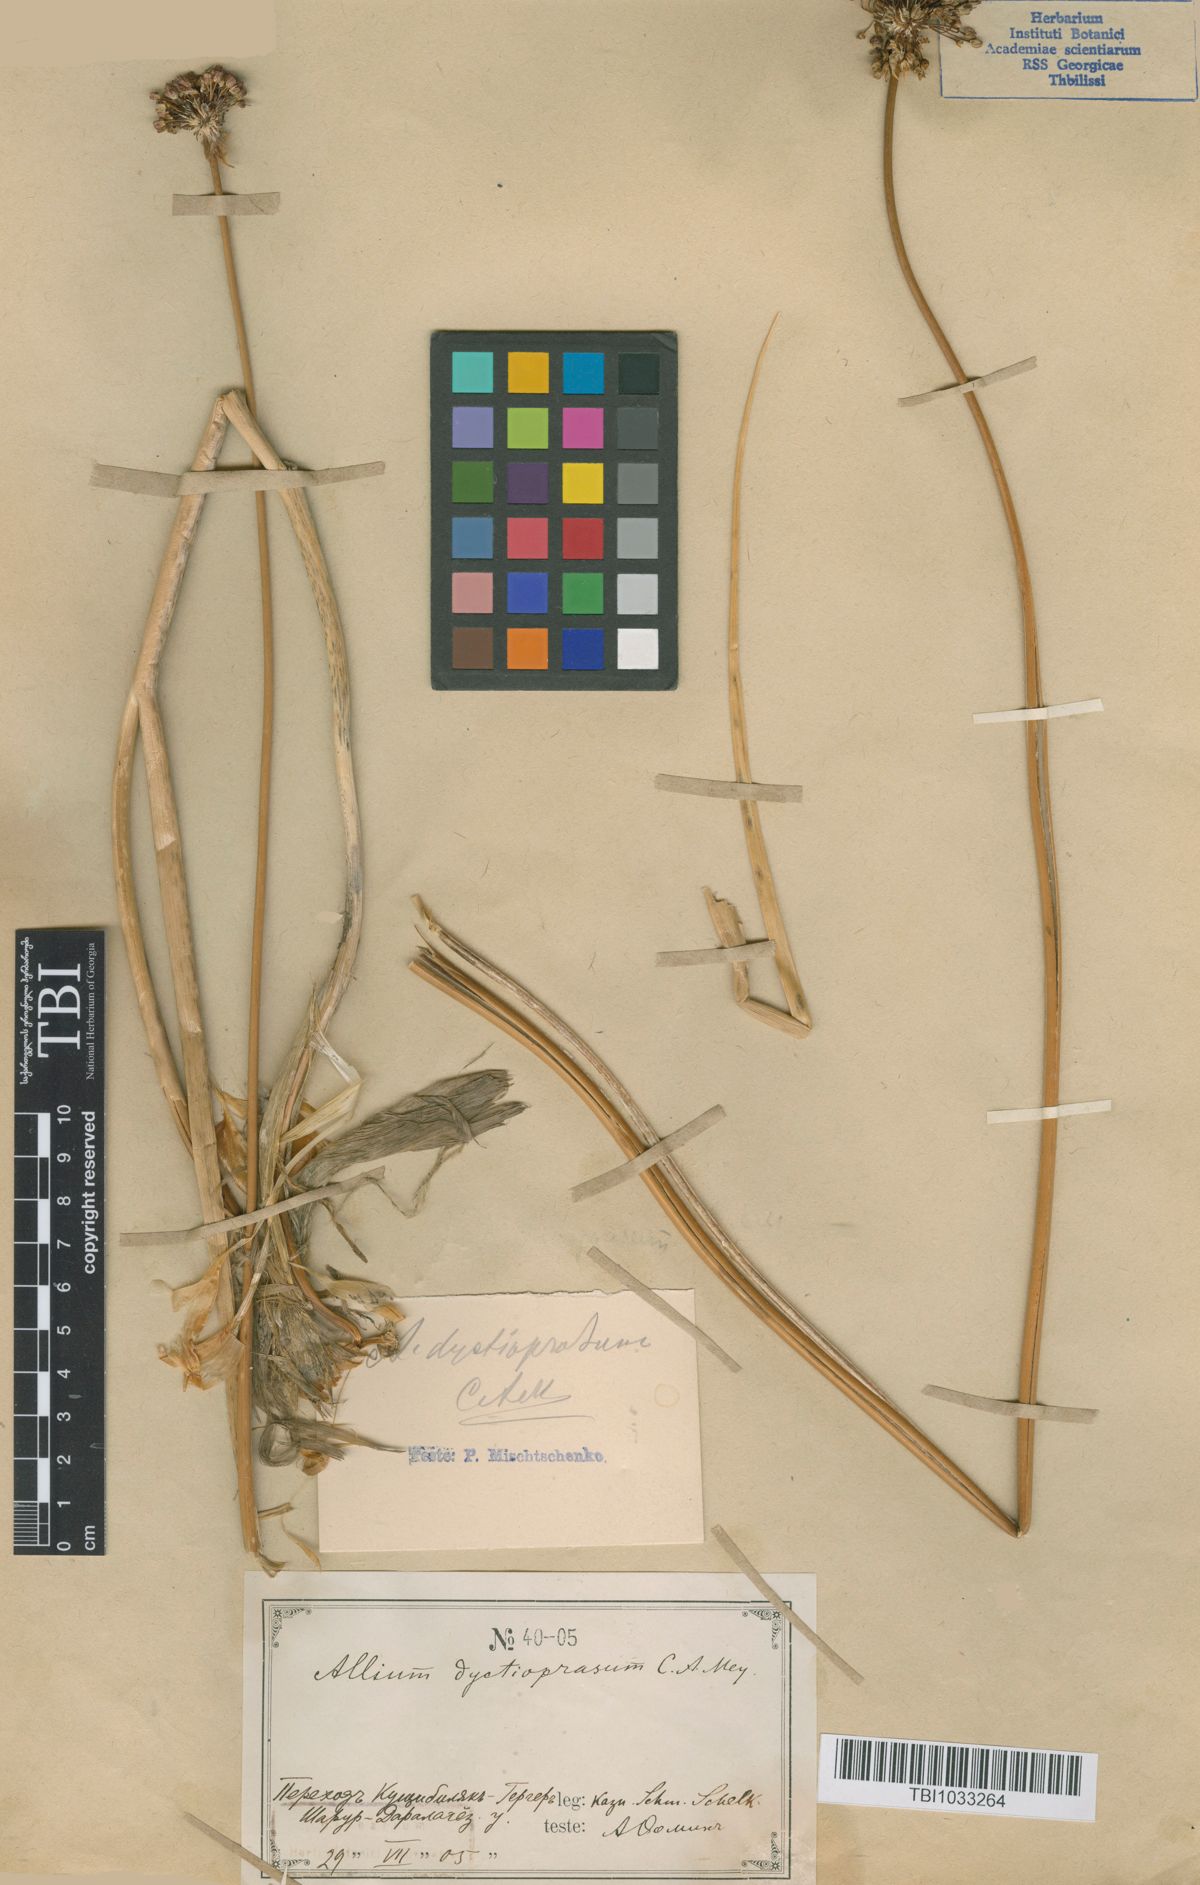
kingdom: Plantae
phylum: Tracheophyta
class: Liliopsida
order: Asparagales
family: Amaryllidaceae
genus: Allium
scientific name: Allium dictyoprasum
